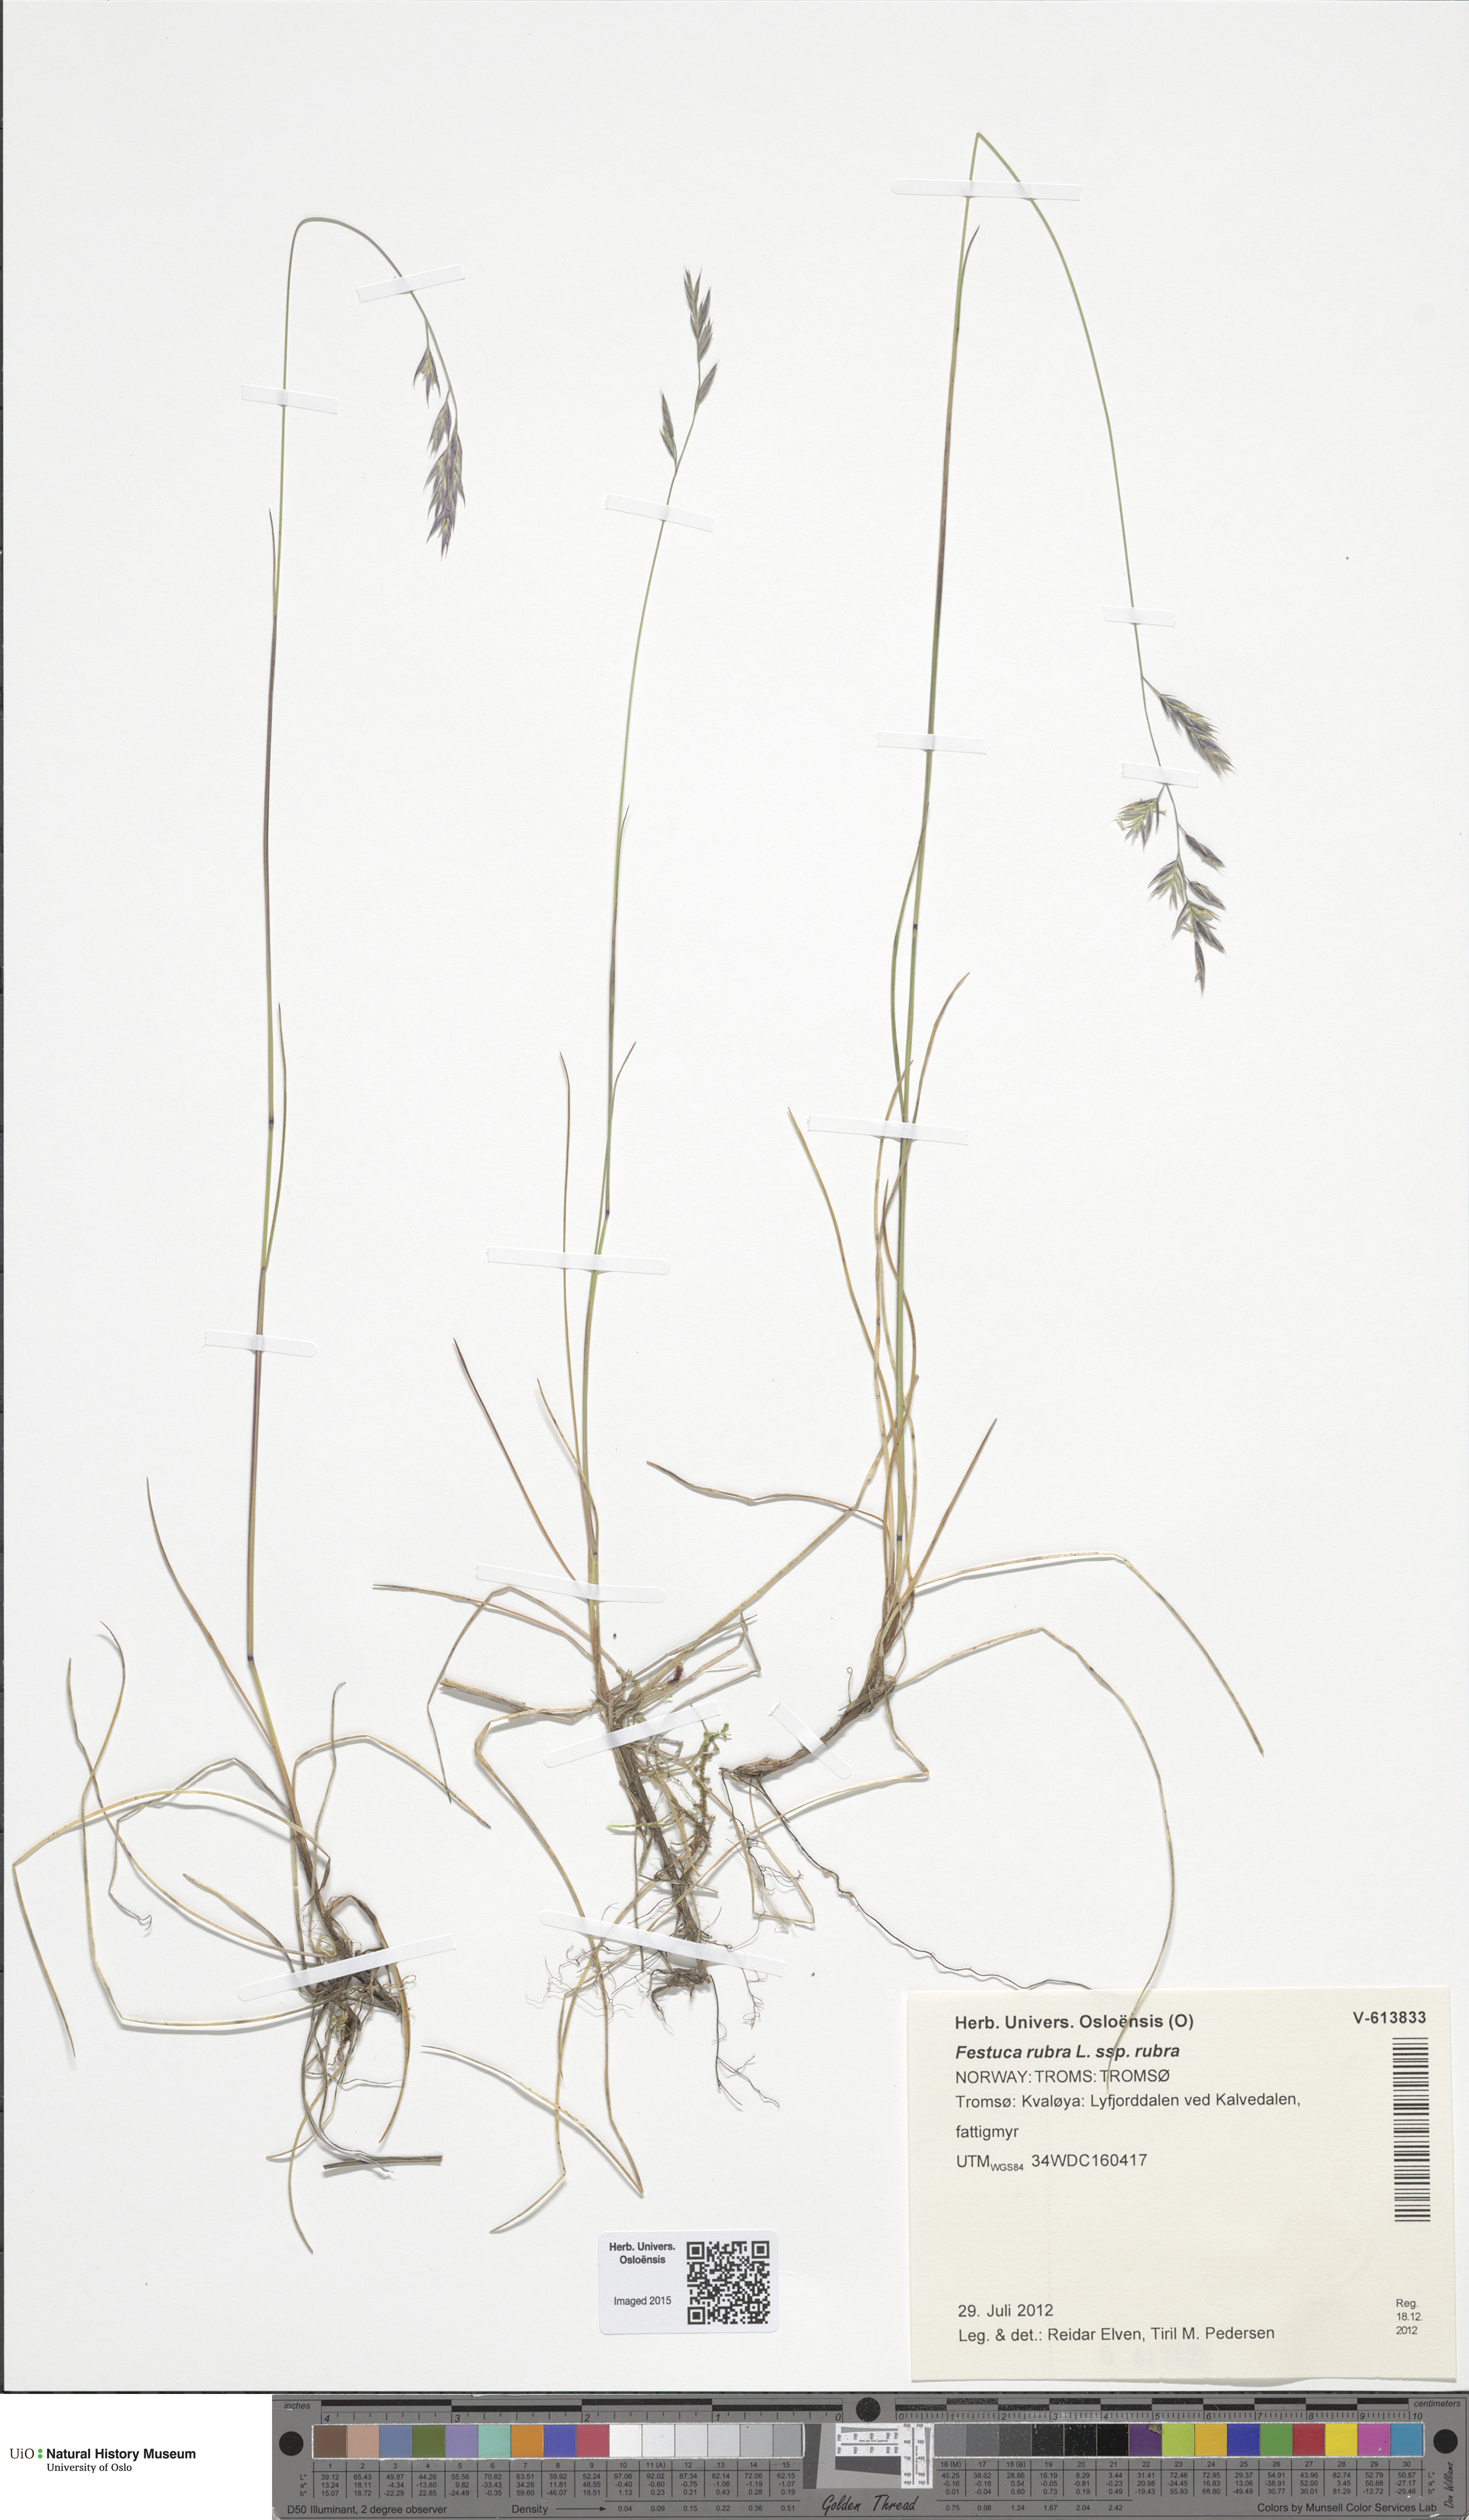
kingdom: Plantae
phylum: Tracheophyta
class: Liliopsida
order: Poales
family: Poaceae
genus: Festuca
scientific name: Festuca rubra
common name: Red fescue
